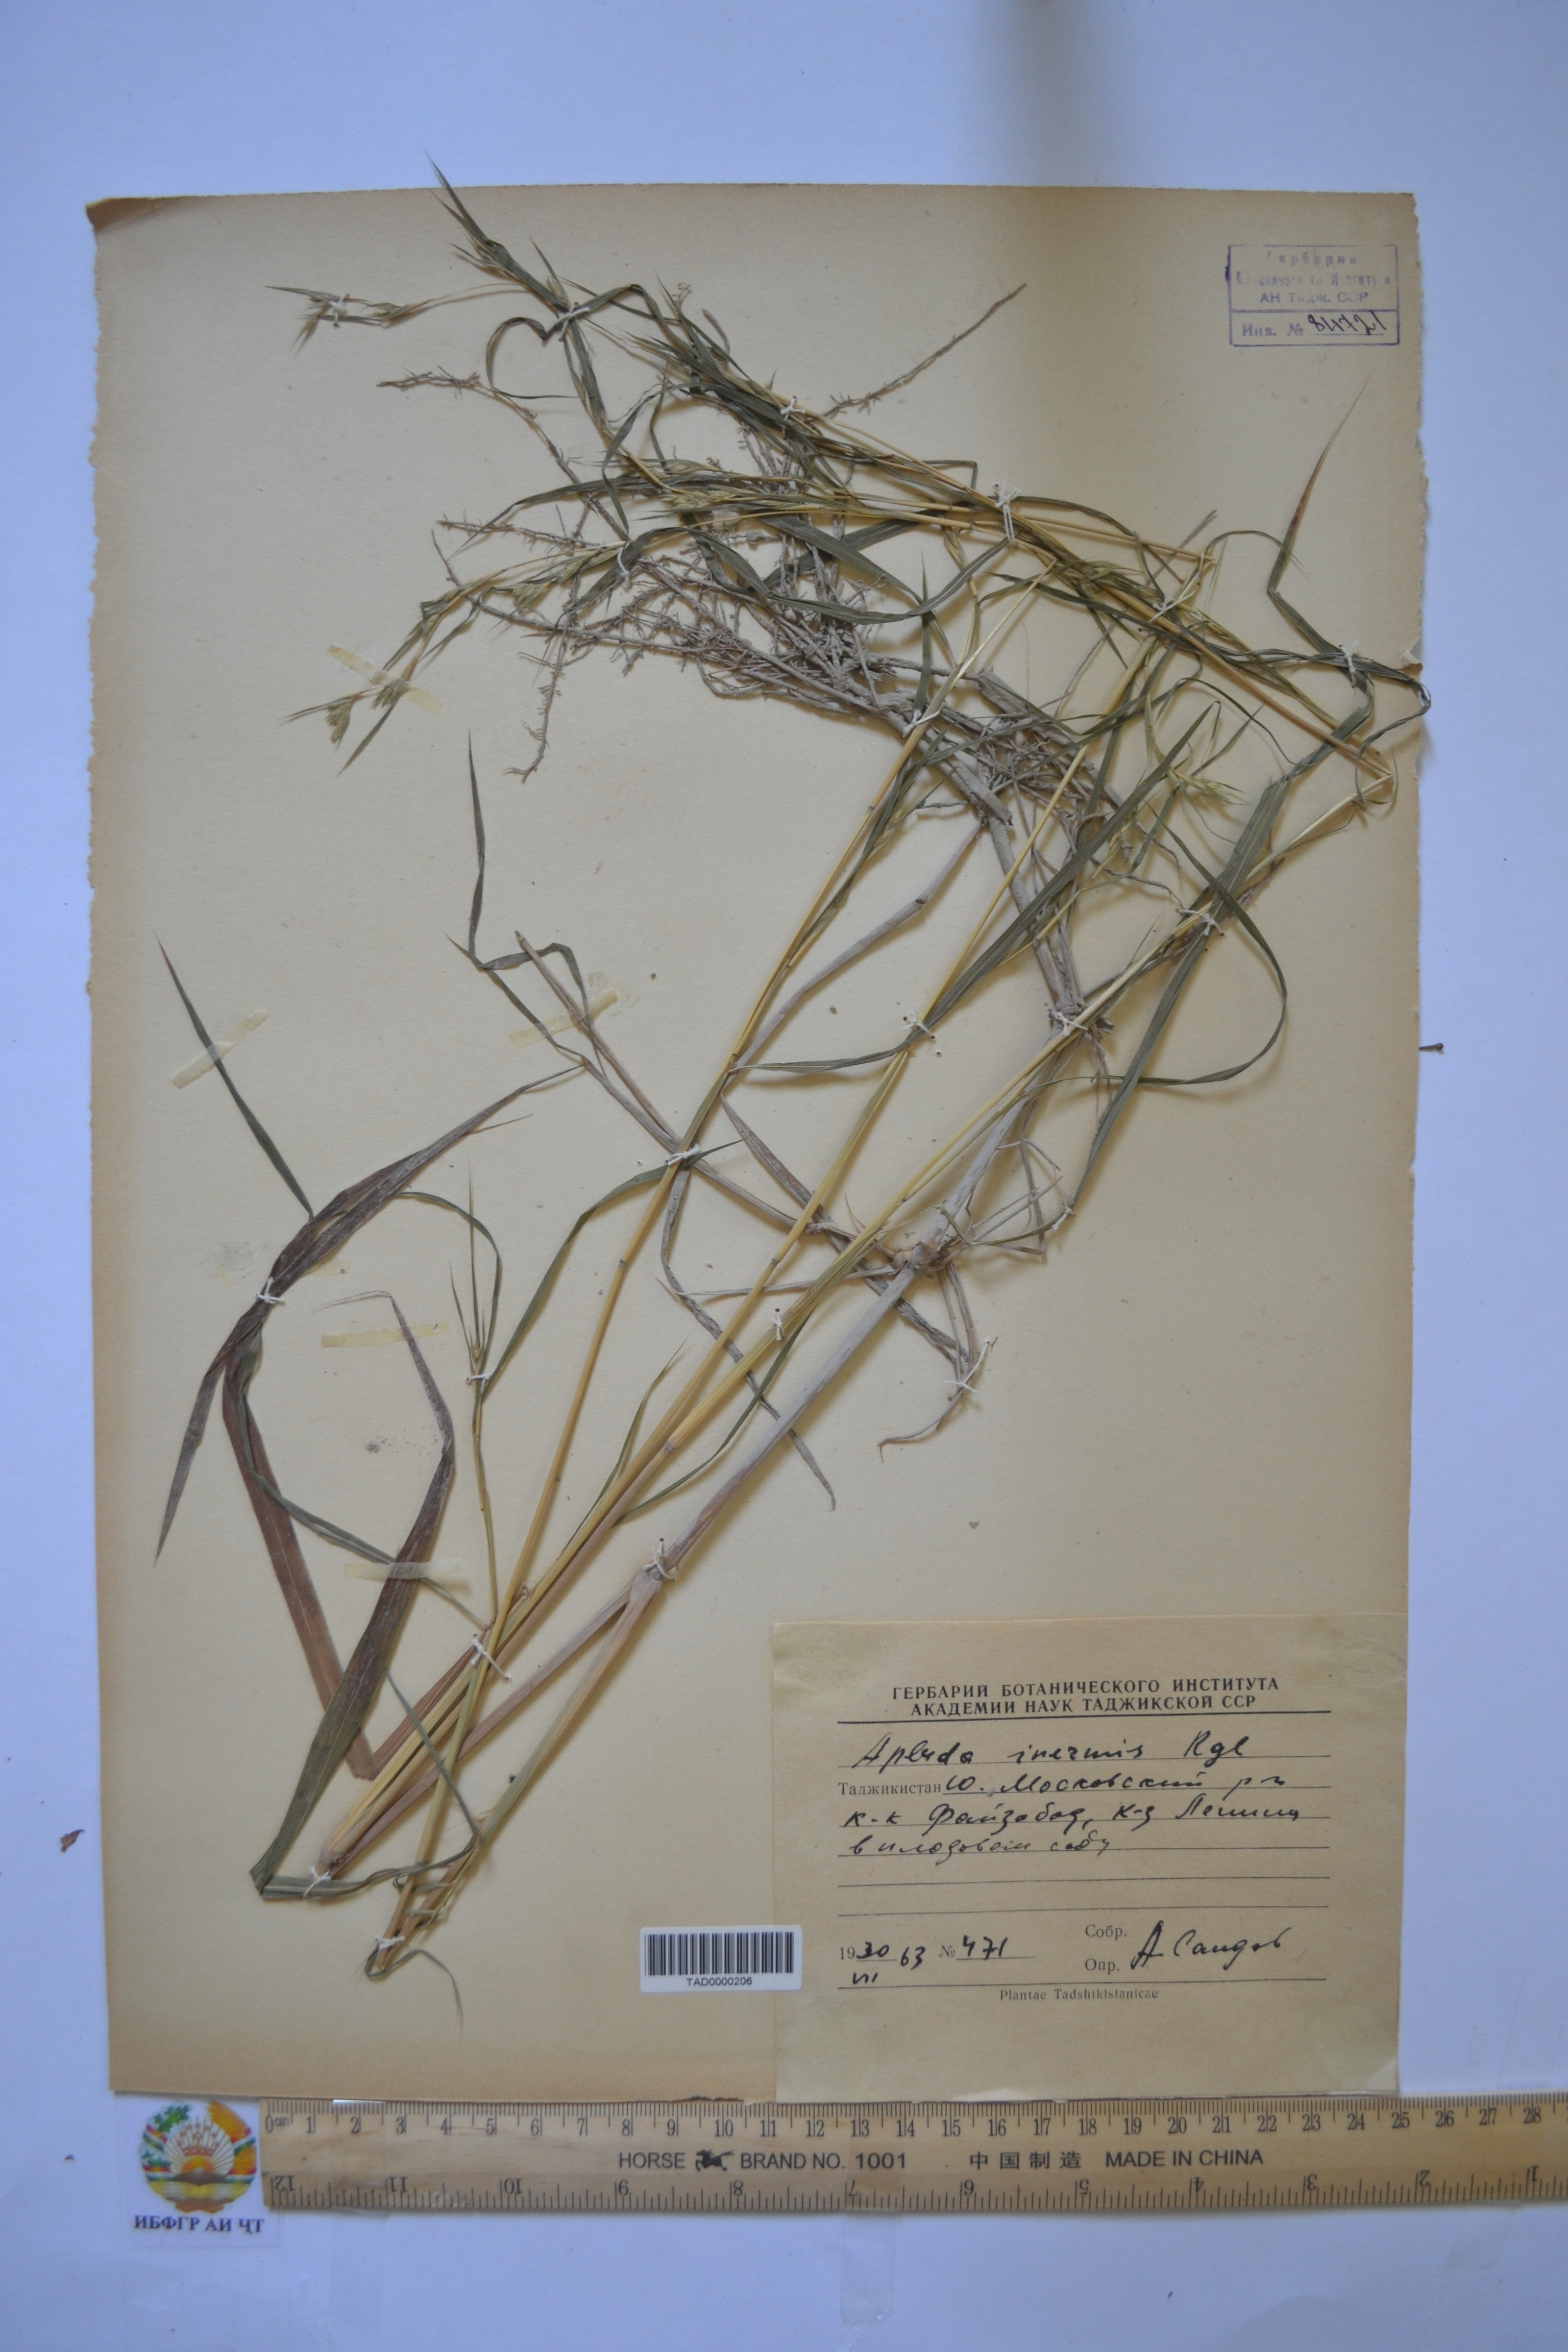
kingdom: Plantae
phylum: Tracheophyta
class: Liliopsida
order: Poales
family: Poaceae
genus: Apluda
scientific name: Apluda mutica
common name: Mauritian grass
